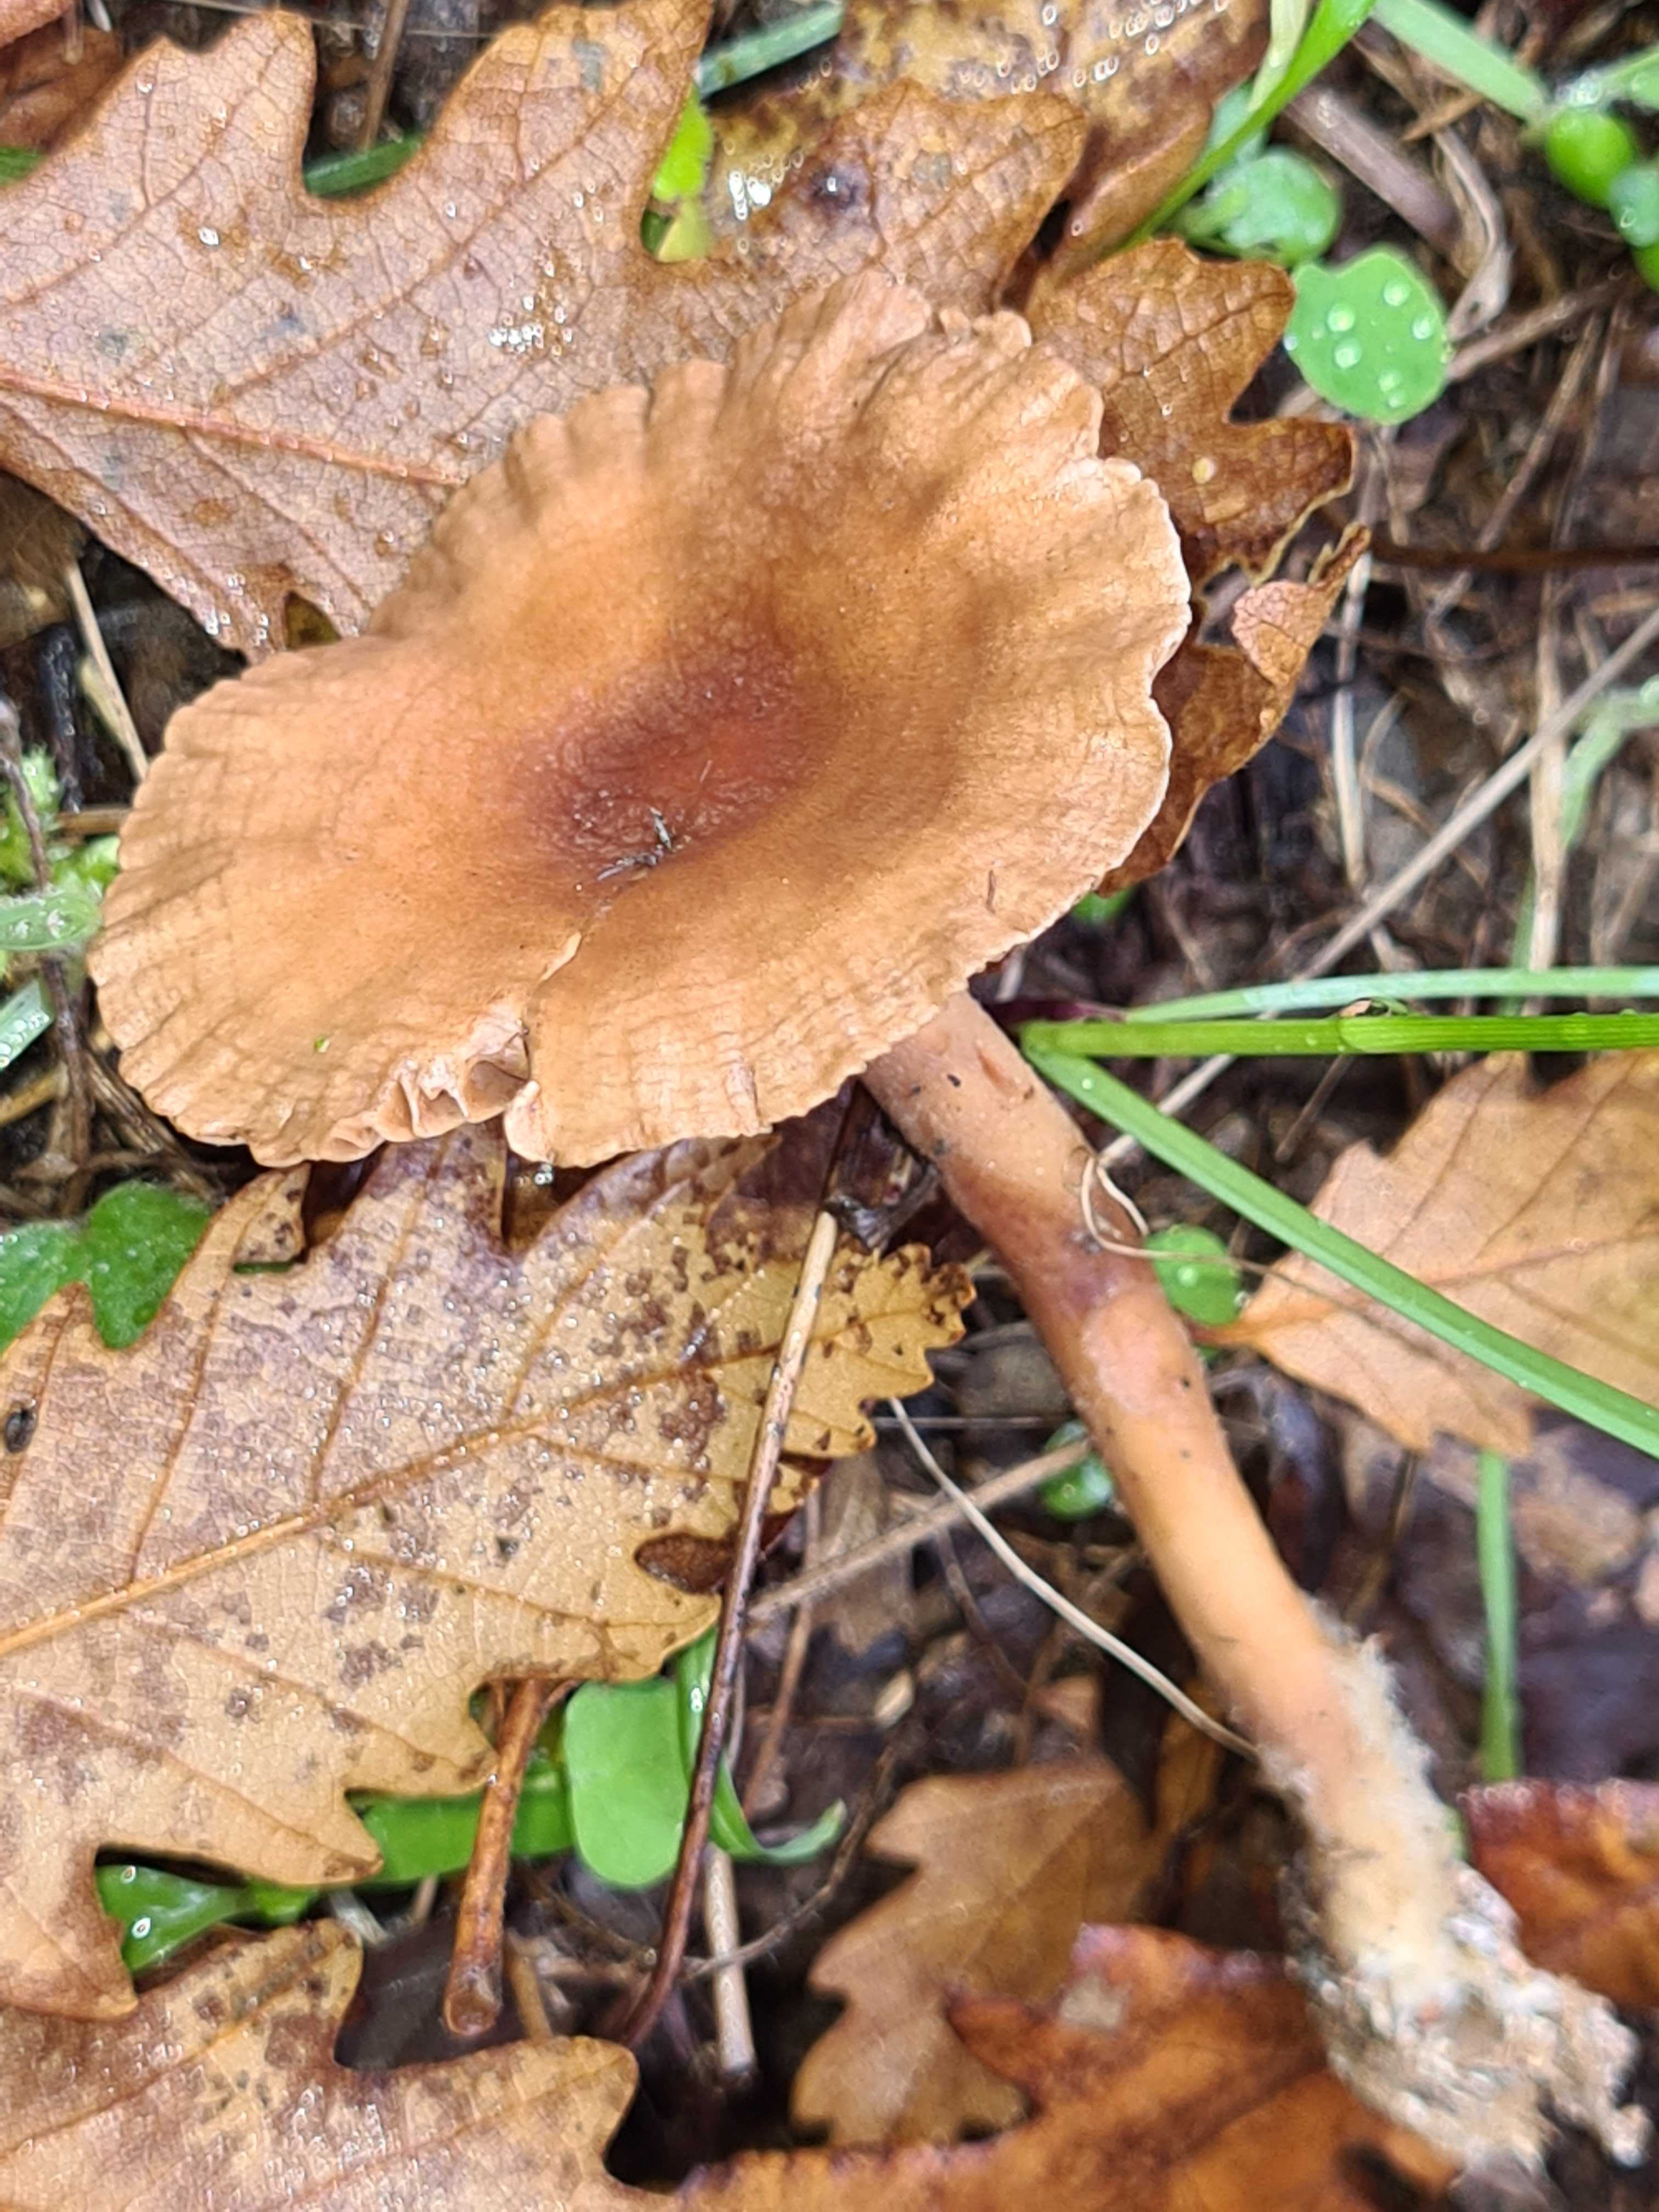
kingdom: Fungi
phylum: Basidiomycota
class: Agaricomycetes
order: Agaricales
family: Omphalotaceae
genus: Collybiopsis
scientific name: Collybiopsis peronata
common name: bestøvlet fladhat
